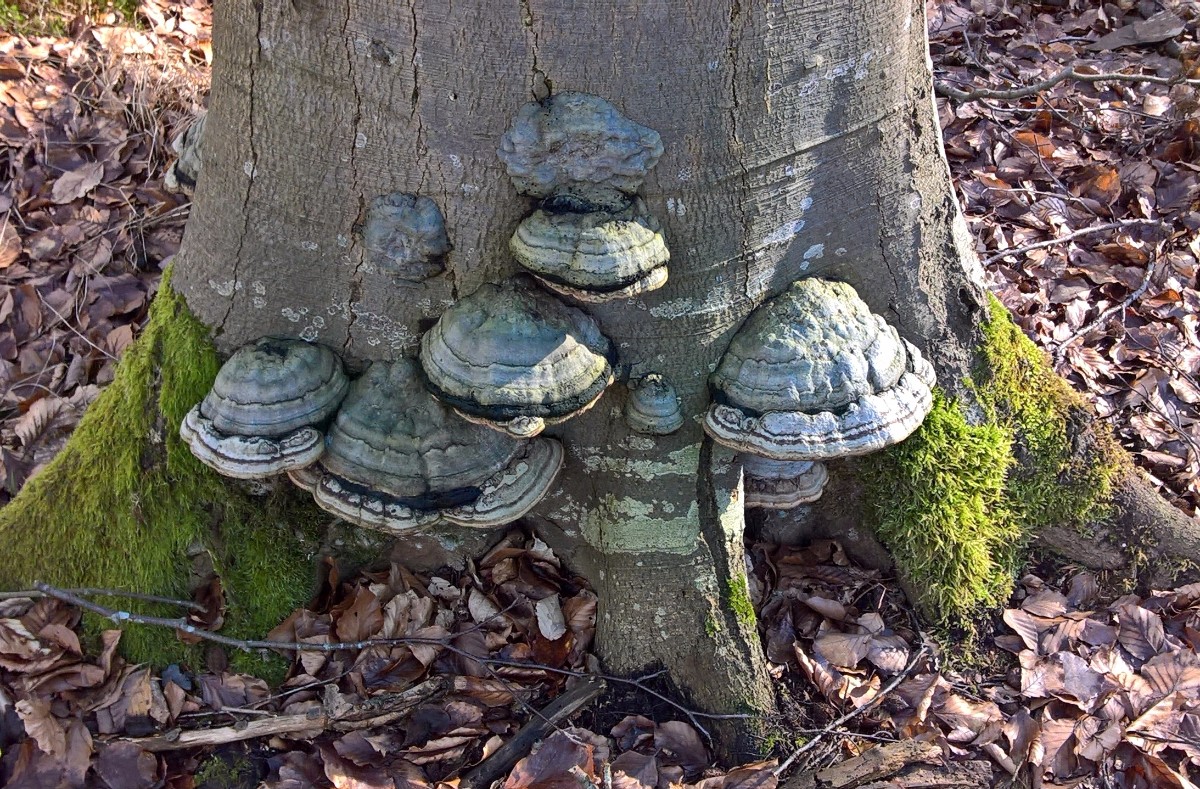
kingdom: Fungi
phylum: Basidiomycota
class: Agaricomycetes
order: Polyporales
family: Polyporaceae
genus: Fomes
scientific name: Fomes fomentarius
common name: tøndersvamp
